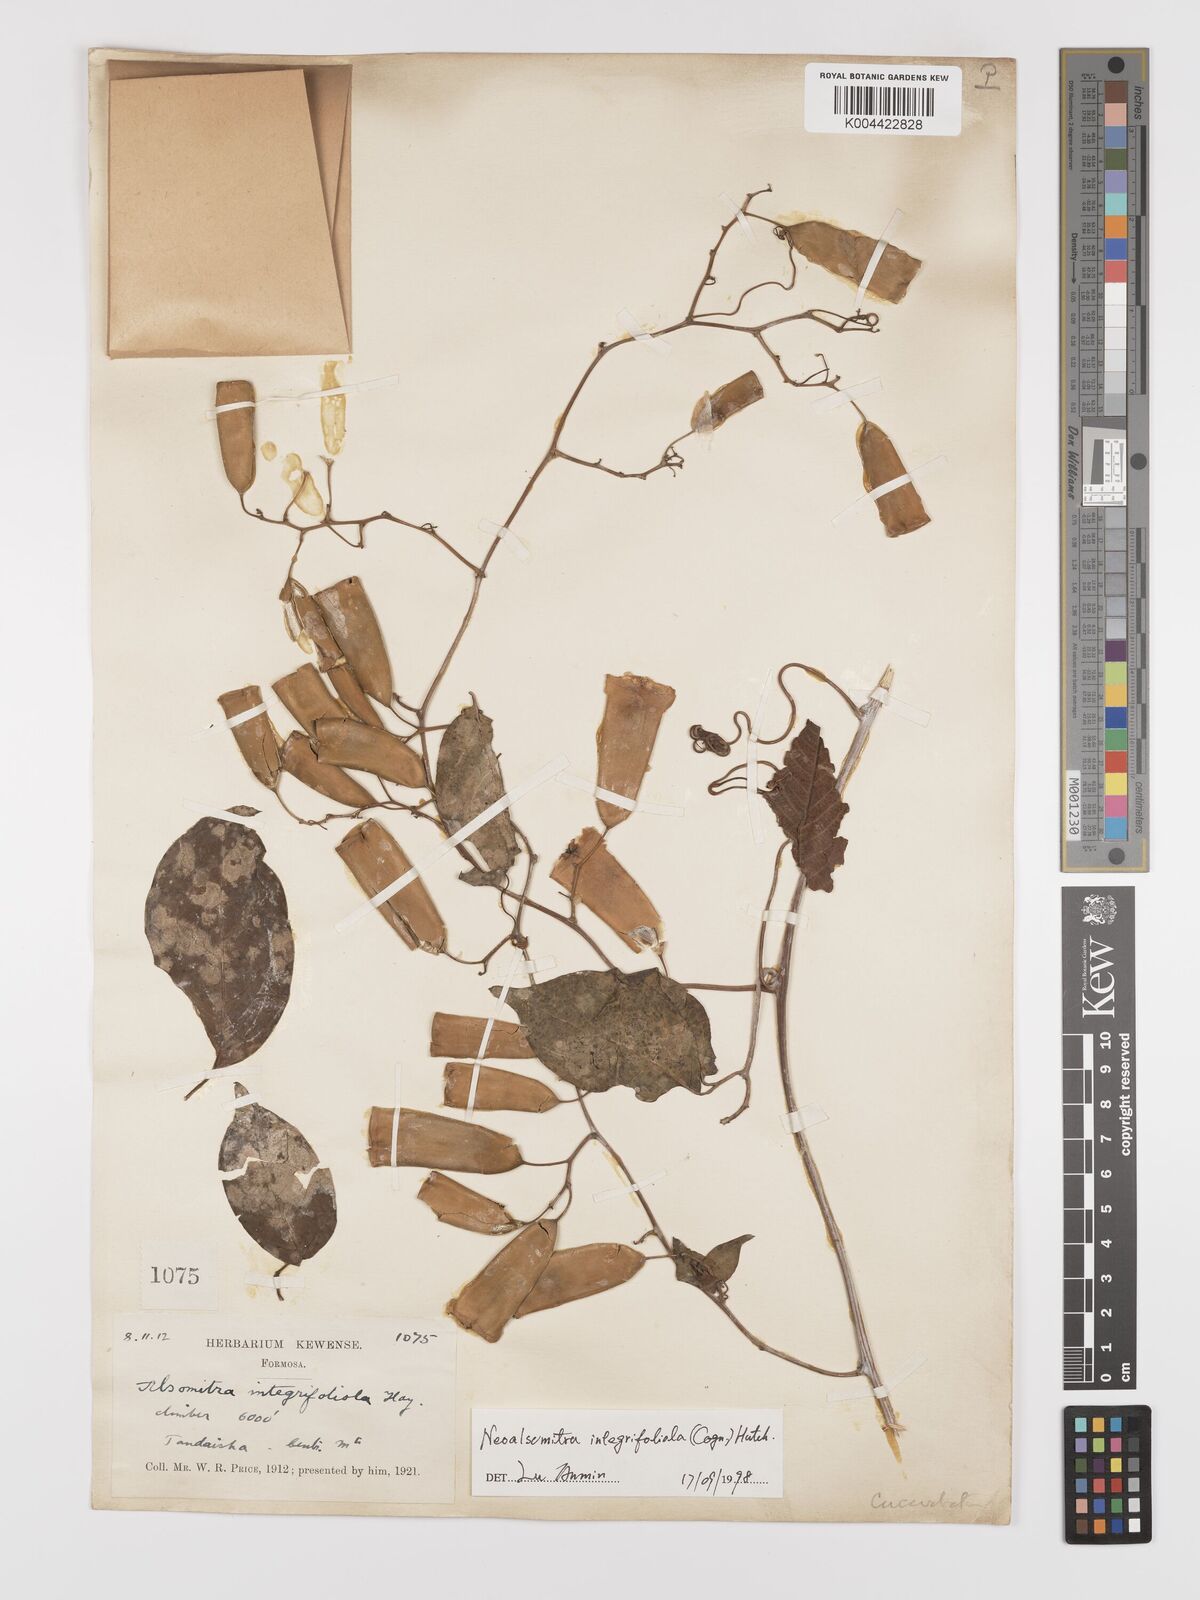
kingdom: Plantae
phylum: Tracheophyta
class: Magnoliopsida
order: Cucurbitales
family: Cucurbitaceae
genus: Neoalsomitra
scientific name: Neoalsomitra clavigera
